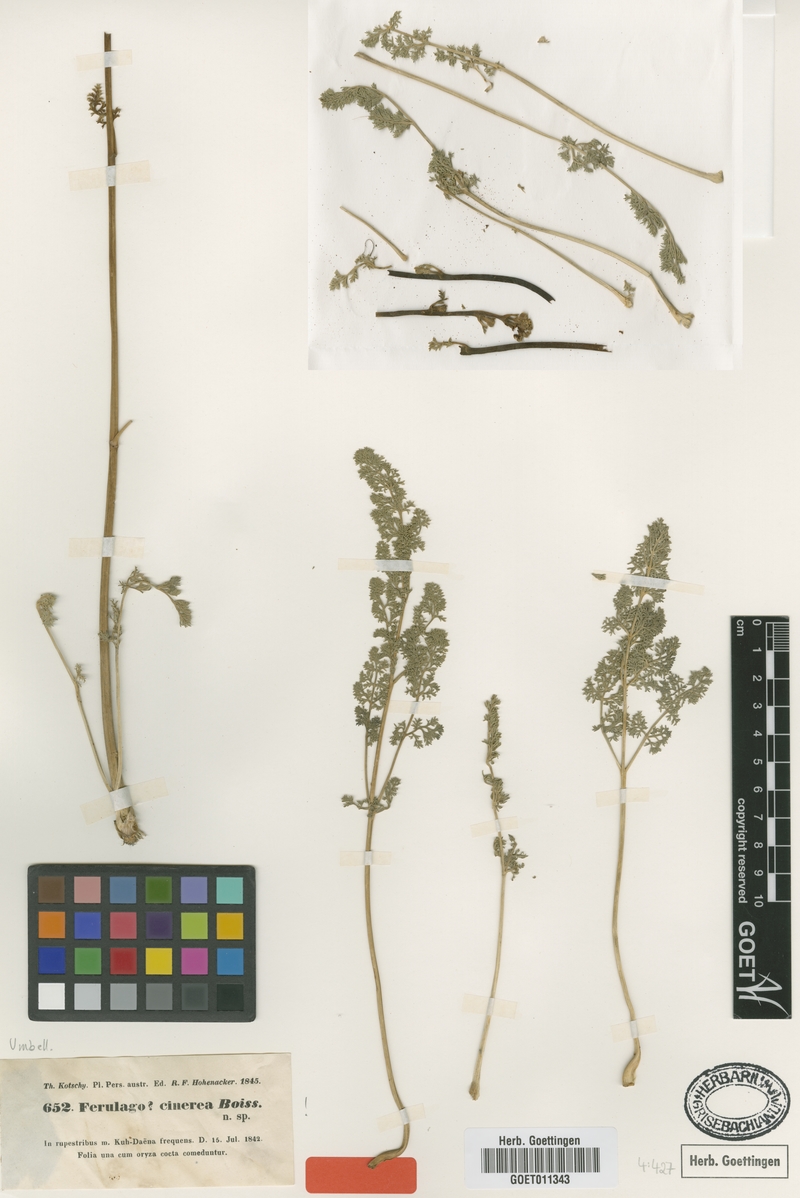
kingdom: Plantae
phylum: Tracheophyta
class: Magnoliopsida
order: Apiales
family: Apiaceae
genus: Echinophora
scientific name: Echinophora cinerea
